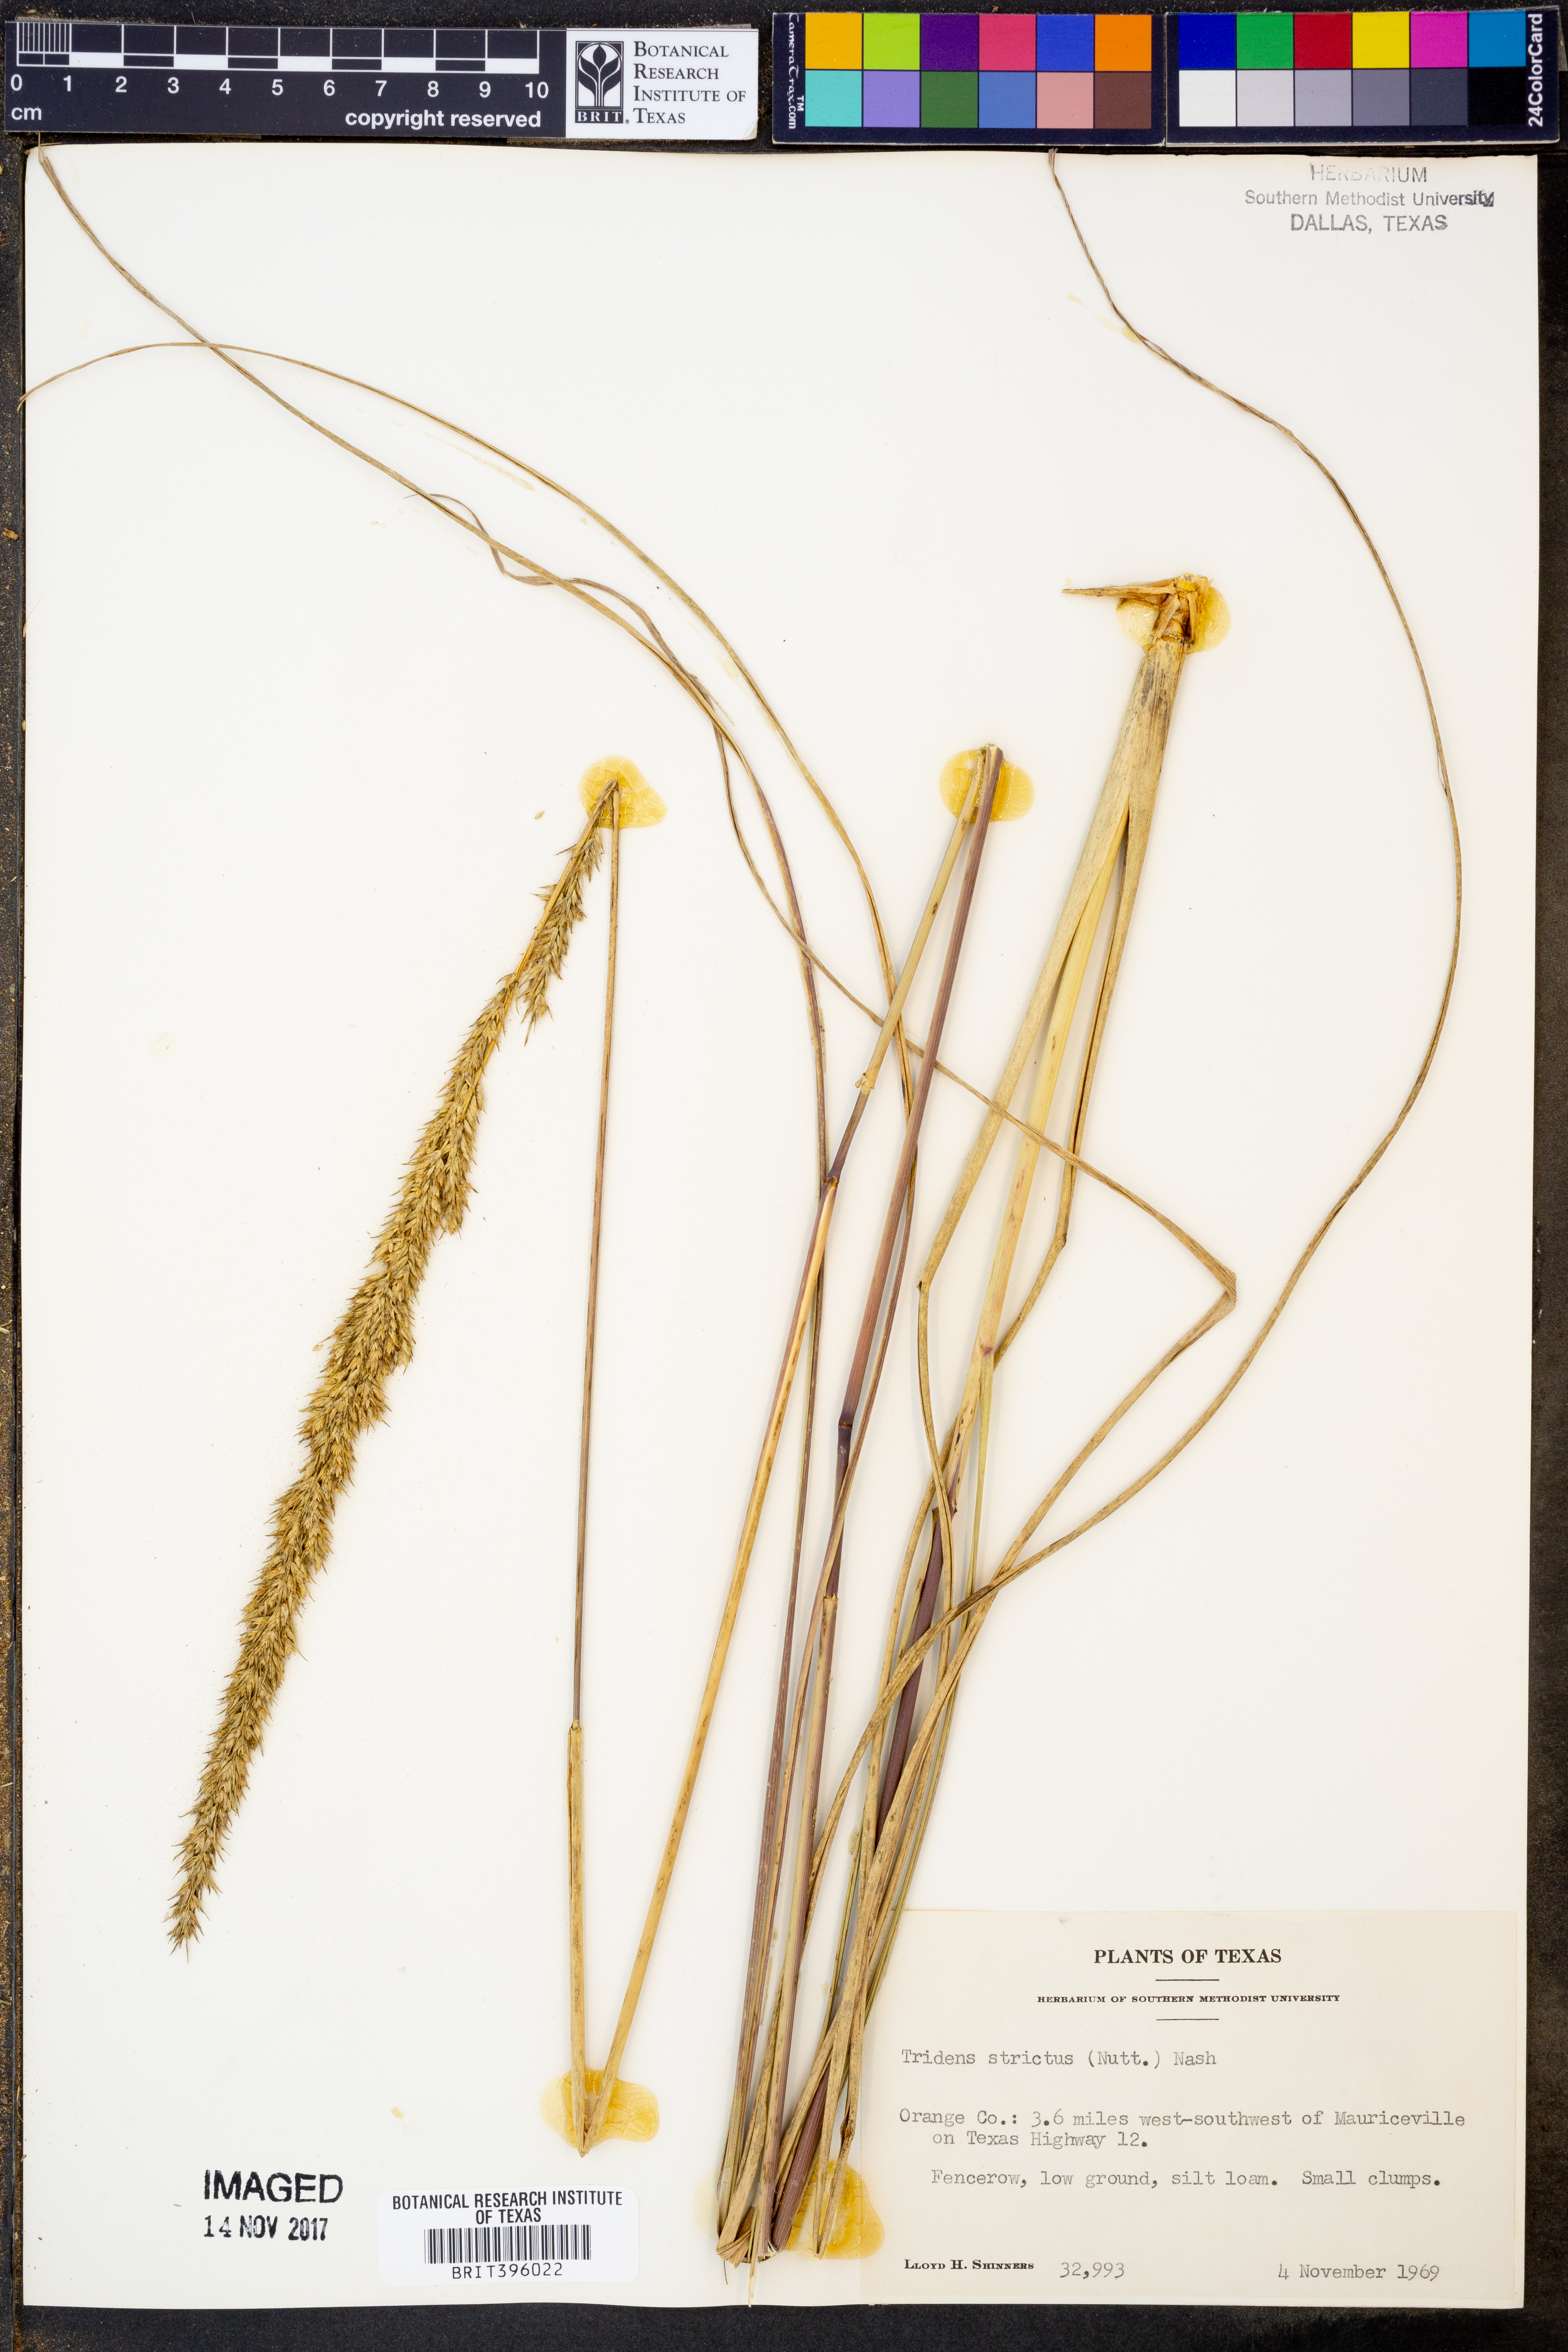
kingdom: Plantae
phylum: Tracheophyta
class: Liliopsida
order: Poales
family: Poaceae
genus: Tridens
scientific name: Tridens strictus
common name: Long-spike tridens
